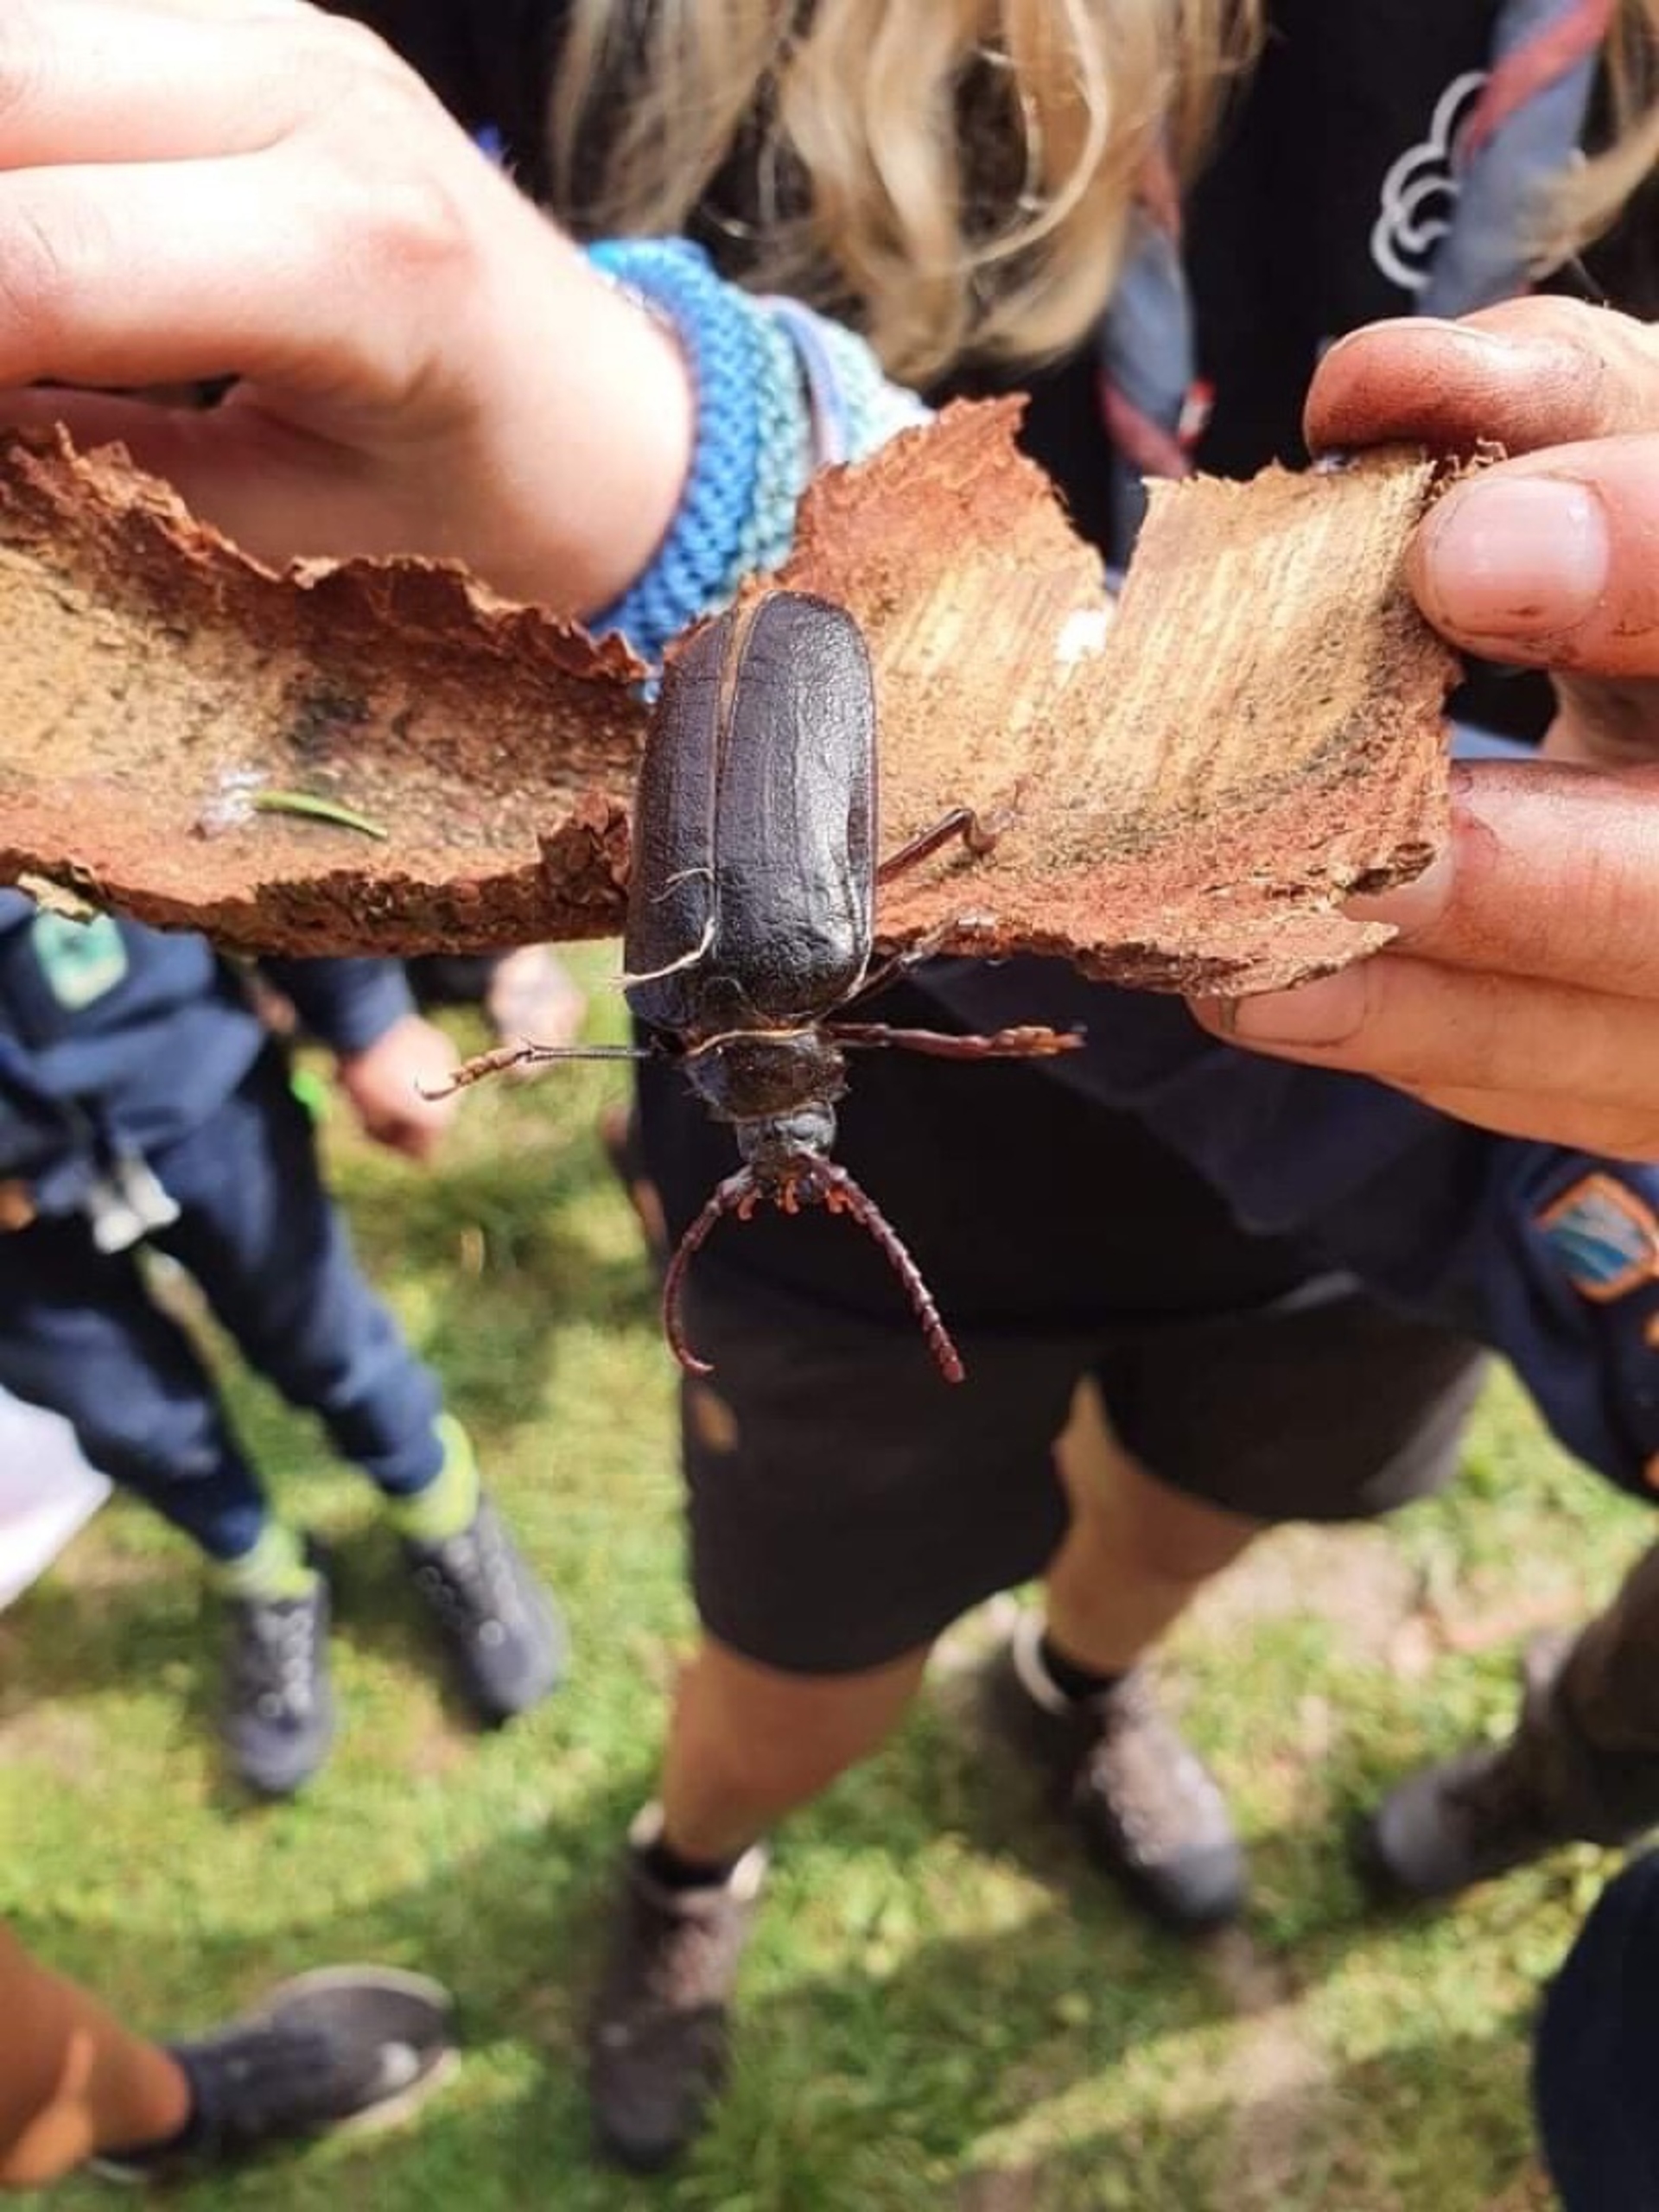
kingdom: Animalia
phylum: Arthropoda
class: Insecta
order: Coleoptera
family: Cerambycidae
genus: Prionus
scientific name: Prionus coriarius
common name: Garver
